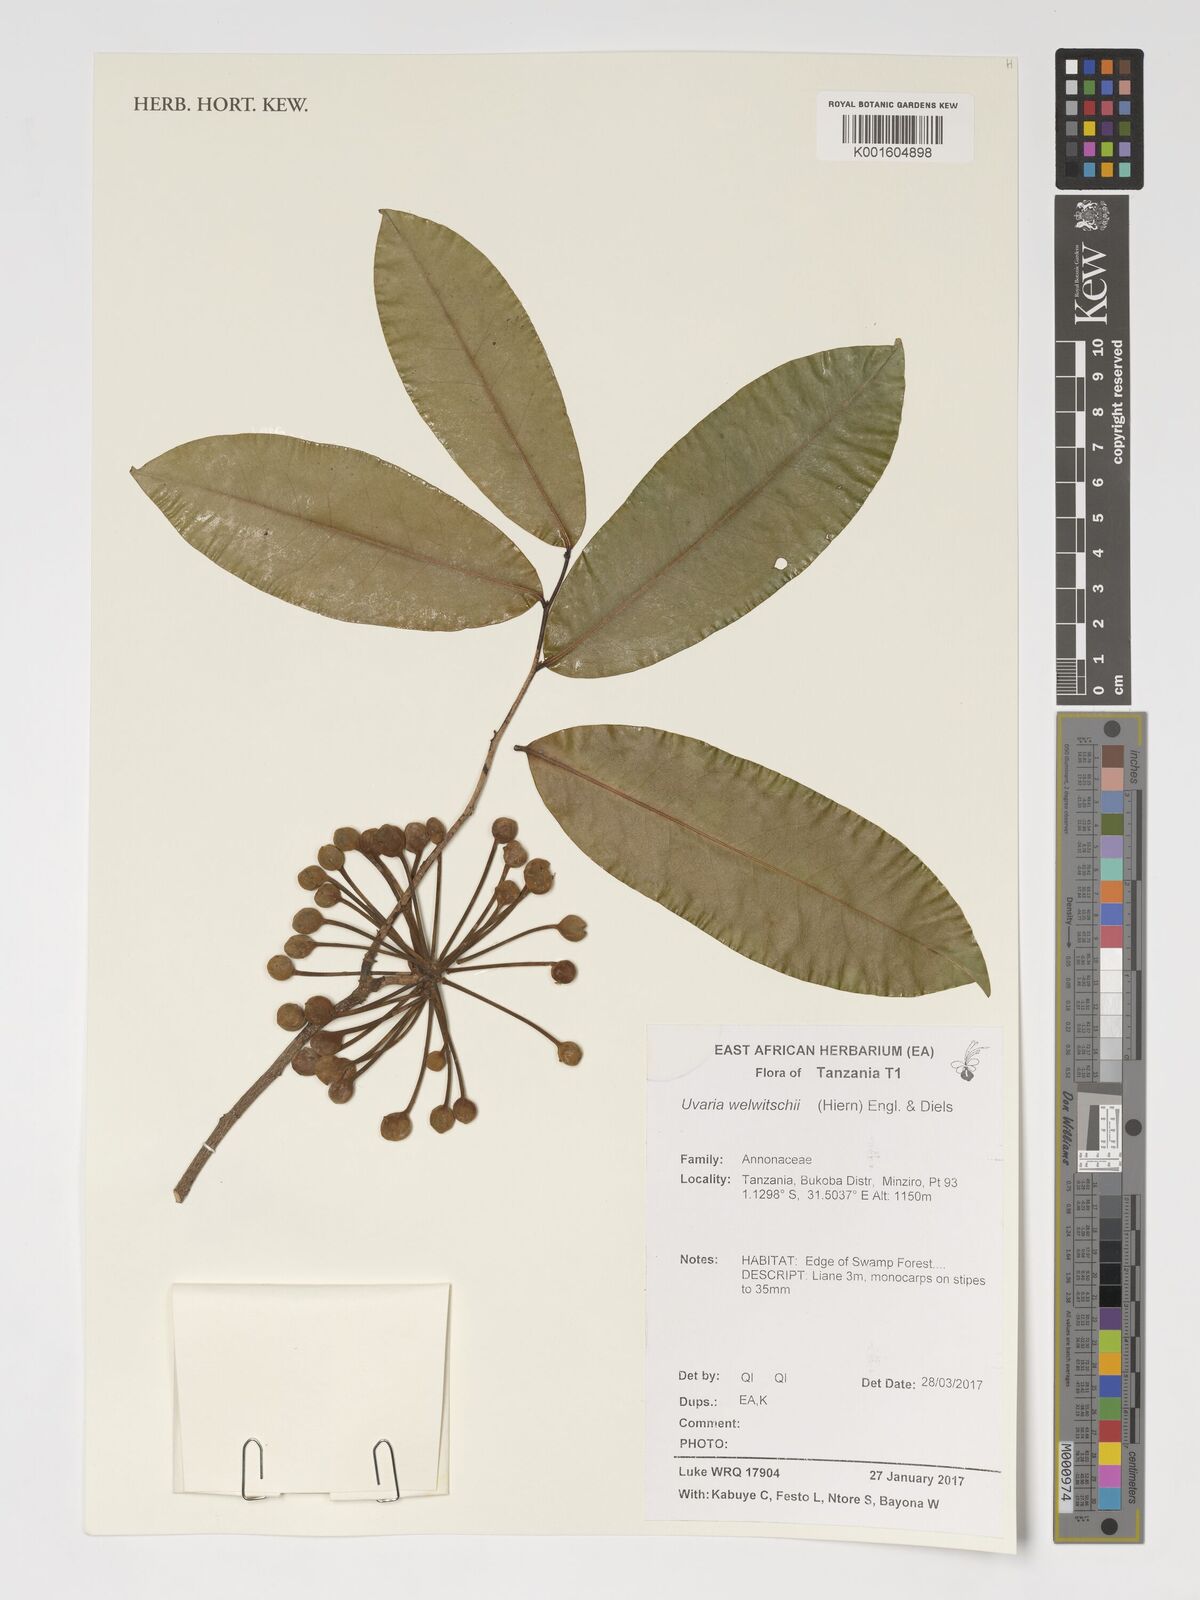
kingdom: Plantae
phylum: Tracheophyta
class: Magnoliopsida
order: Magnoliales
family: Annonaceae
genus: Uvaria
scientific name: Uvaria welwitschii
